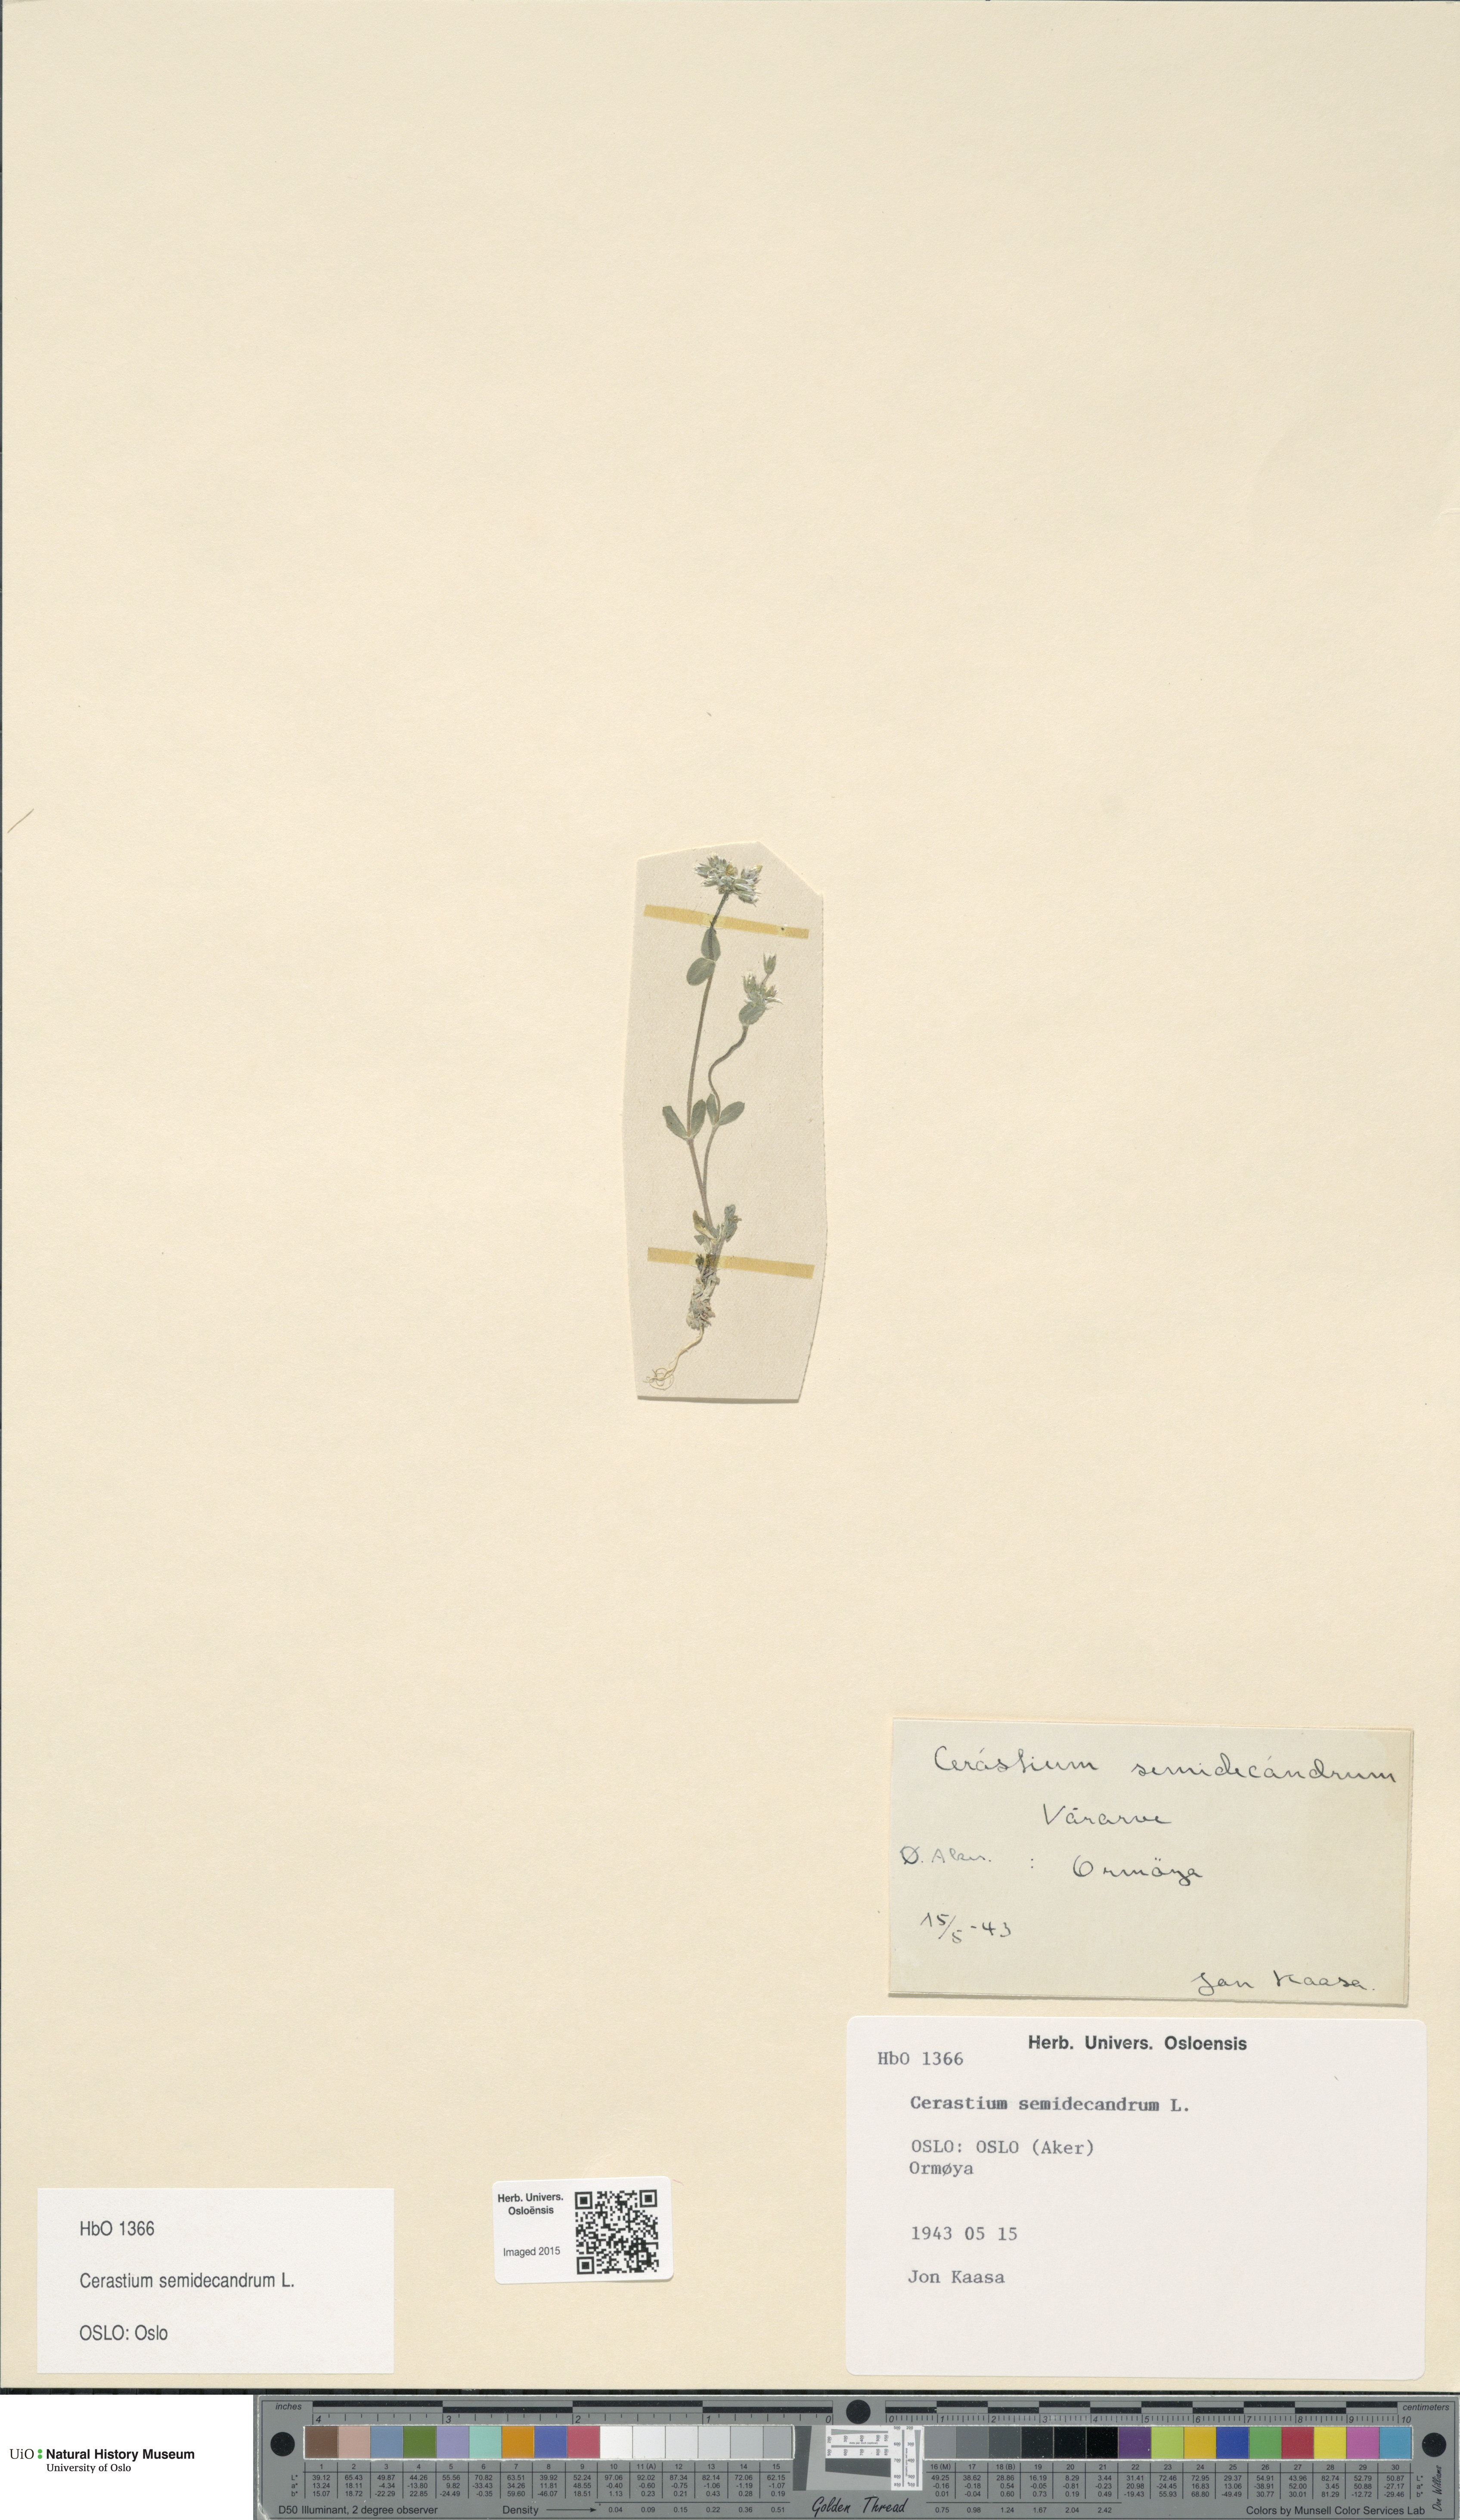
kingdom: Plantae
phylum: Tracheophyta
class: Magnoliopsida
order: Caryophyllales
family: Caryophyllaceae
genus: Cerastium
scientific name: Cerastium semidecandrum
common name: Little mouse-ear
